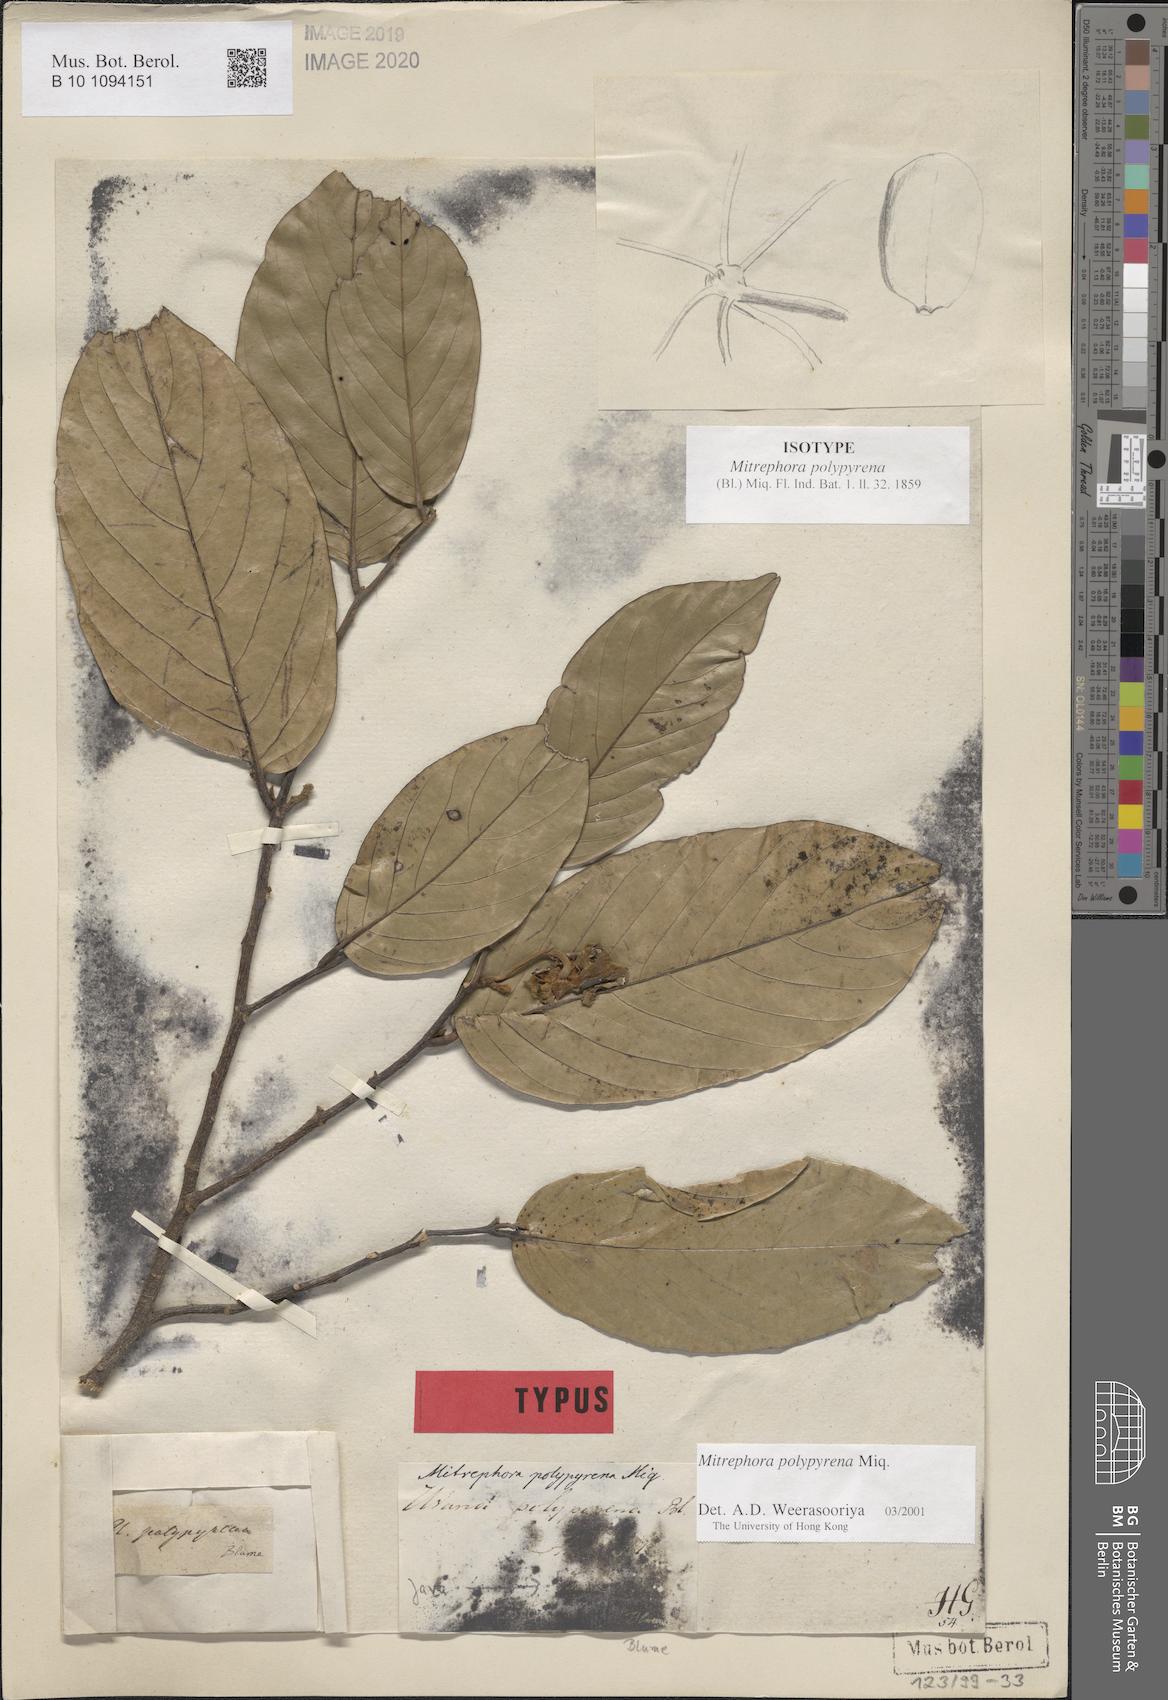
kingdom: Plantae
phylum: Tracheophyta
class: Magnoliopsida
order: Magnoliales
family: Annonaceae
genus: Mitrephora
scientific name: Mitrephora polypyrena
